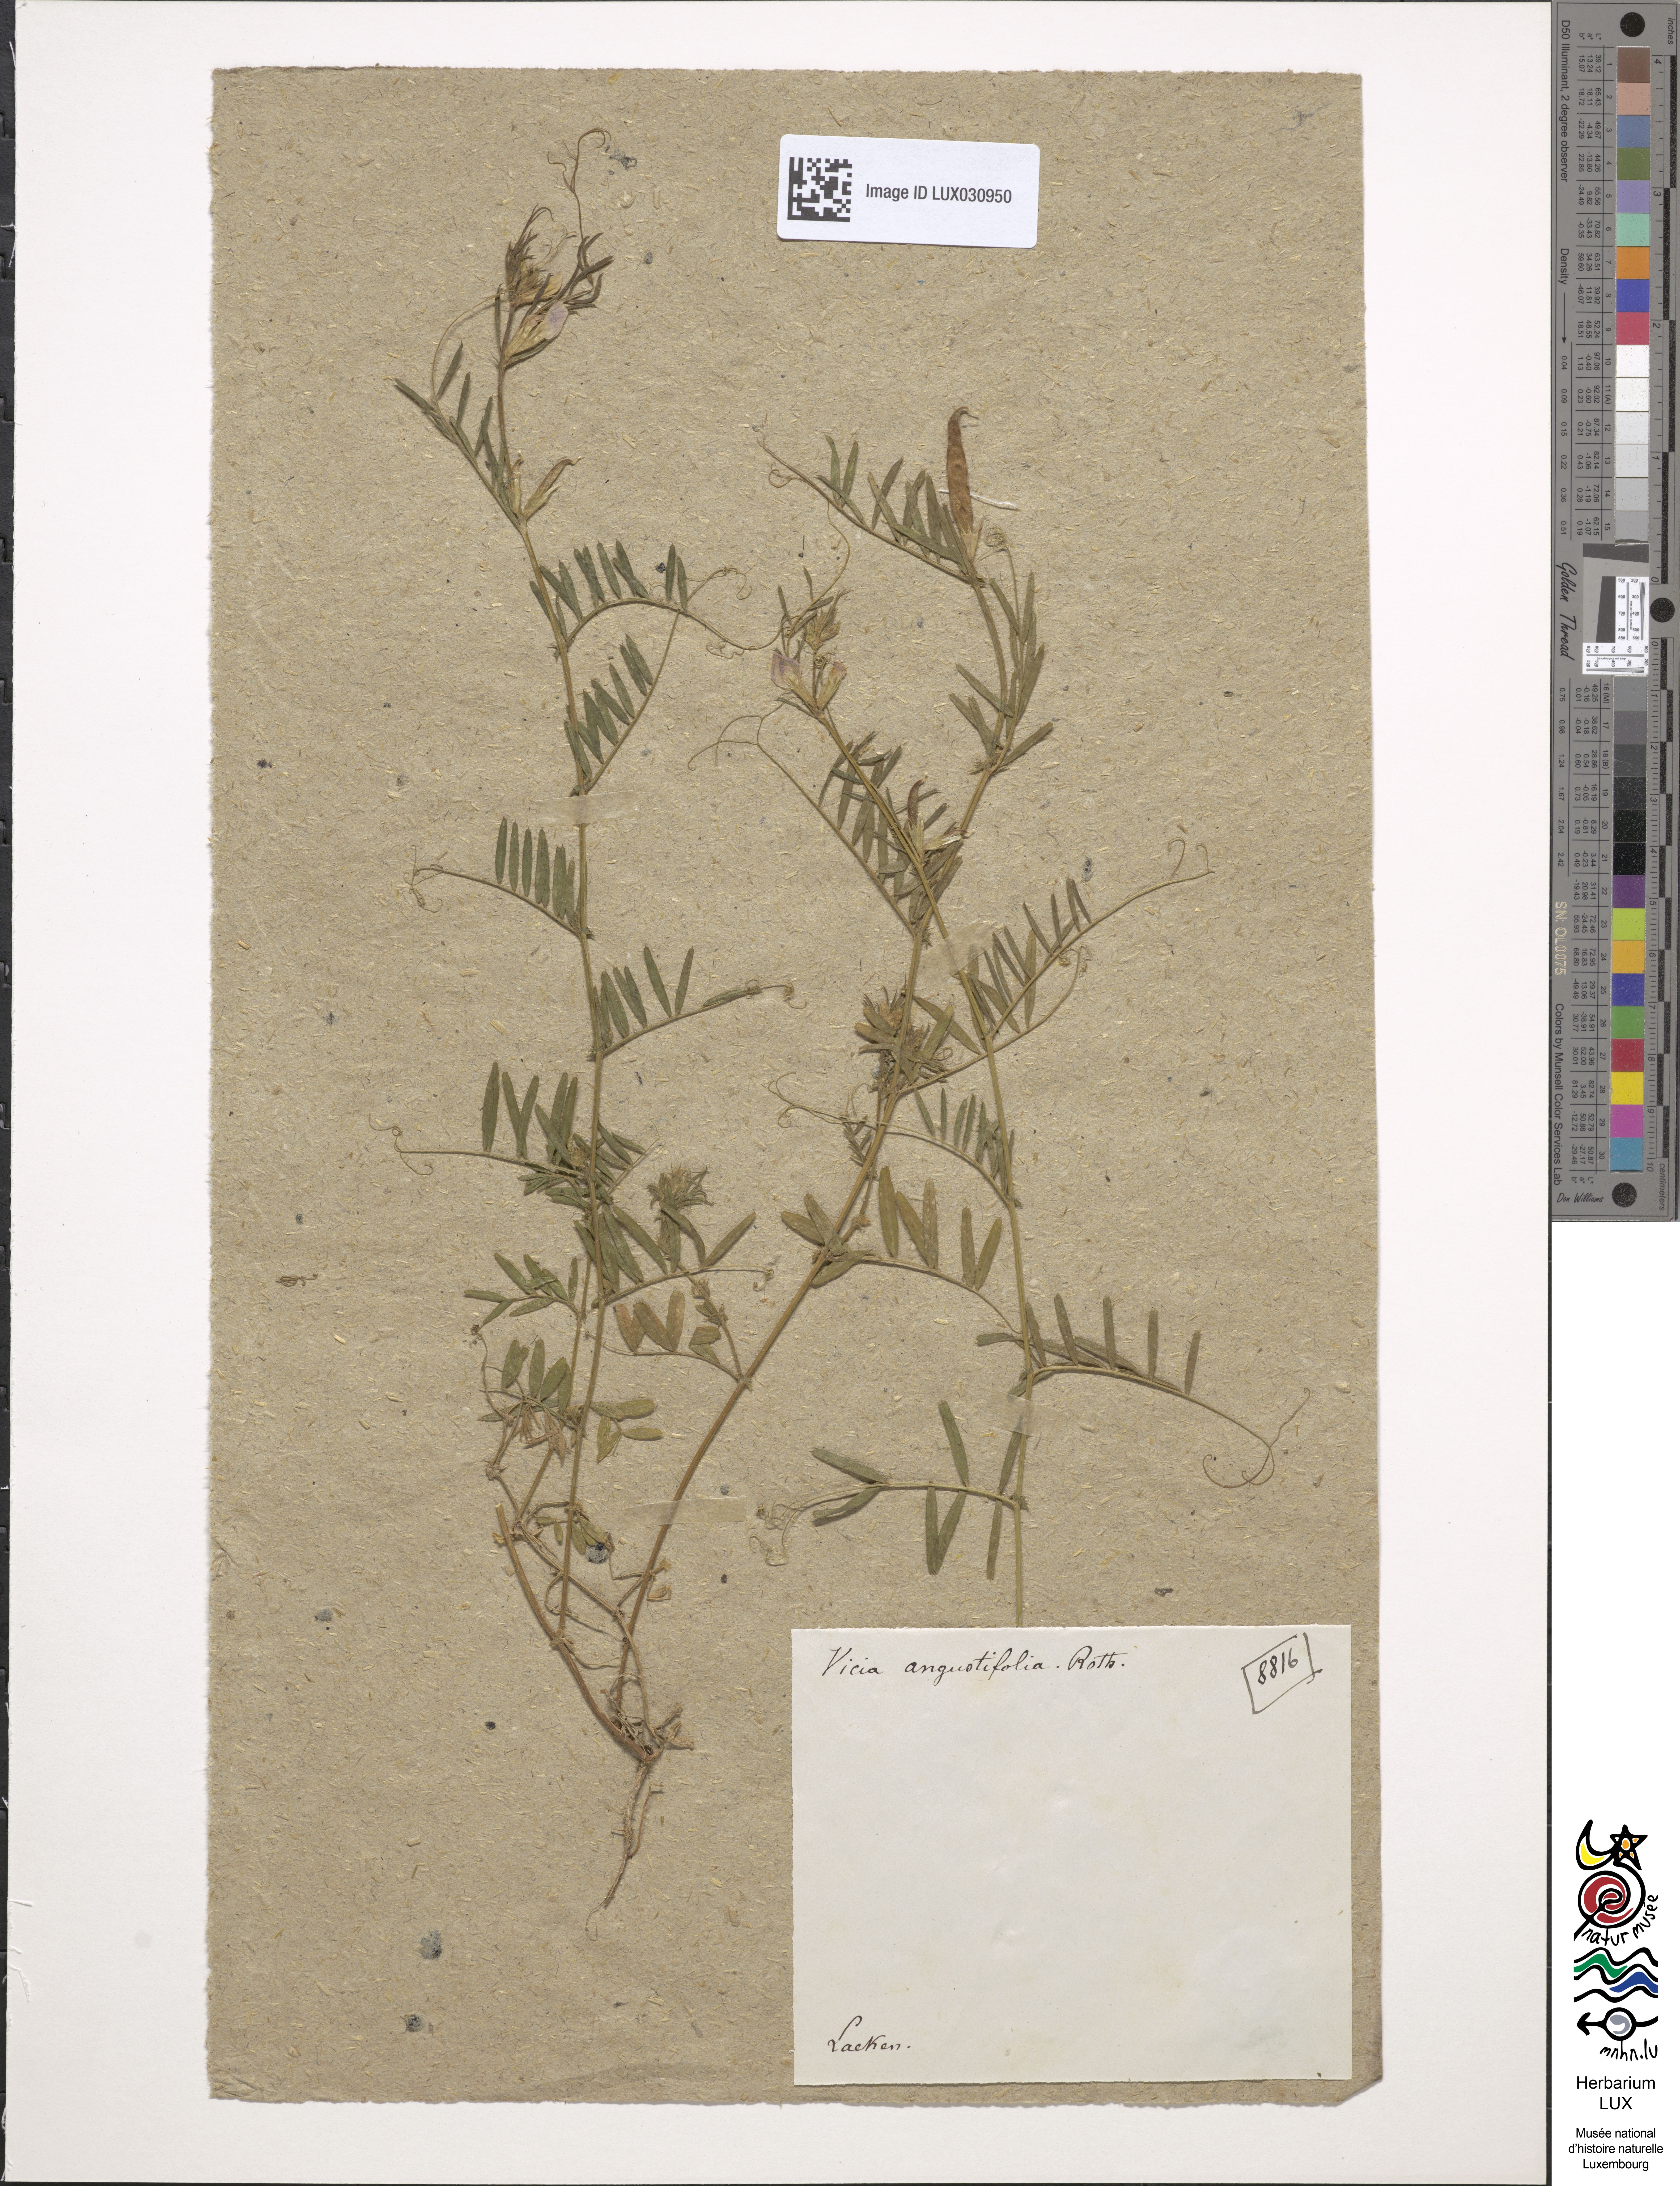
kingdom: Plantae
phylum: Tracheophyta
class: Magnoliopsida
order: Fabales
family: Fabaceae
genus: Vicia
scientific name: Vicia sativa
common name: Garden vetch
